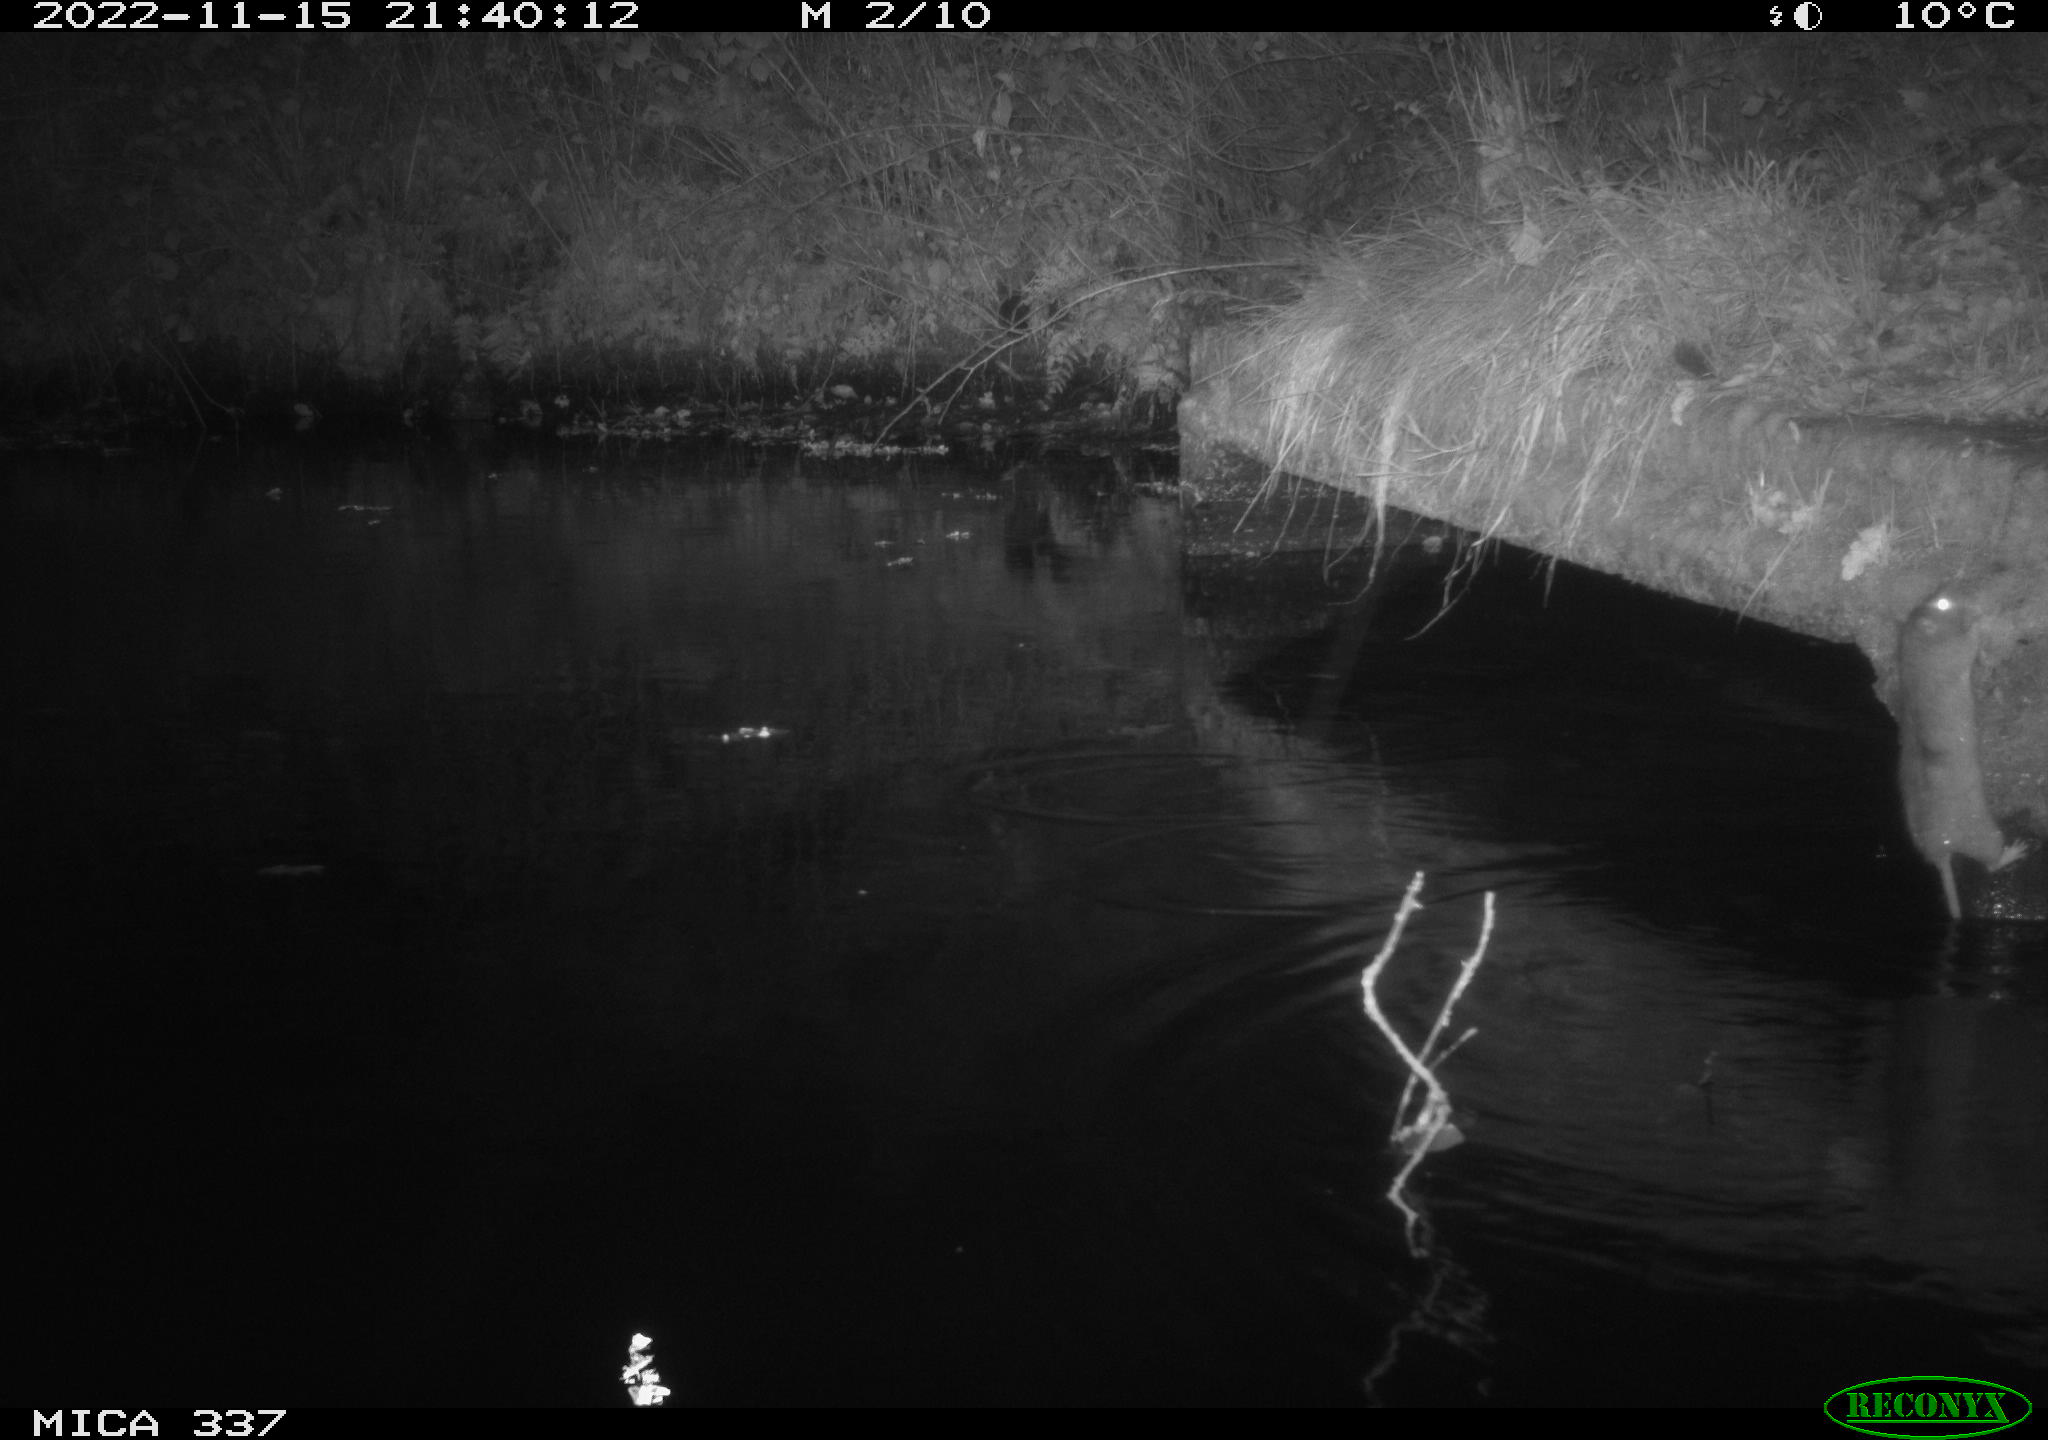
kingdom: Animalia
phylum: Chordata
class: Mammalia
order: Rodentia
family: Muridae
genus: Rattus
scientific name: Rattus norvegicus
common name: Brown rat
